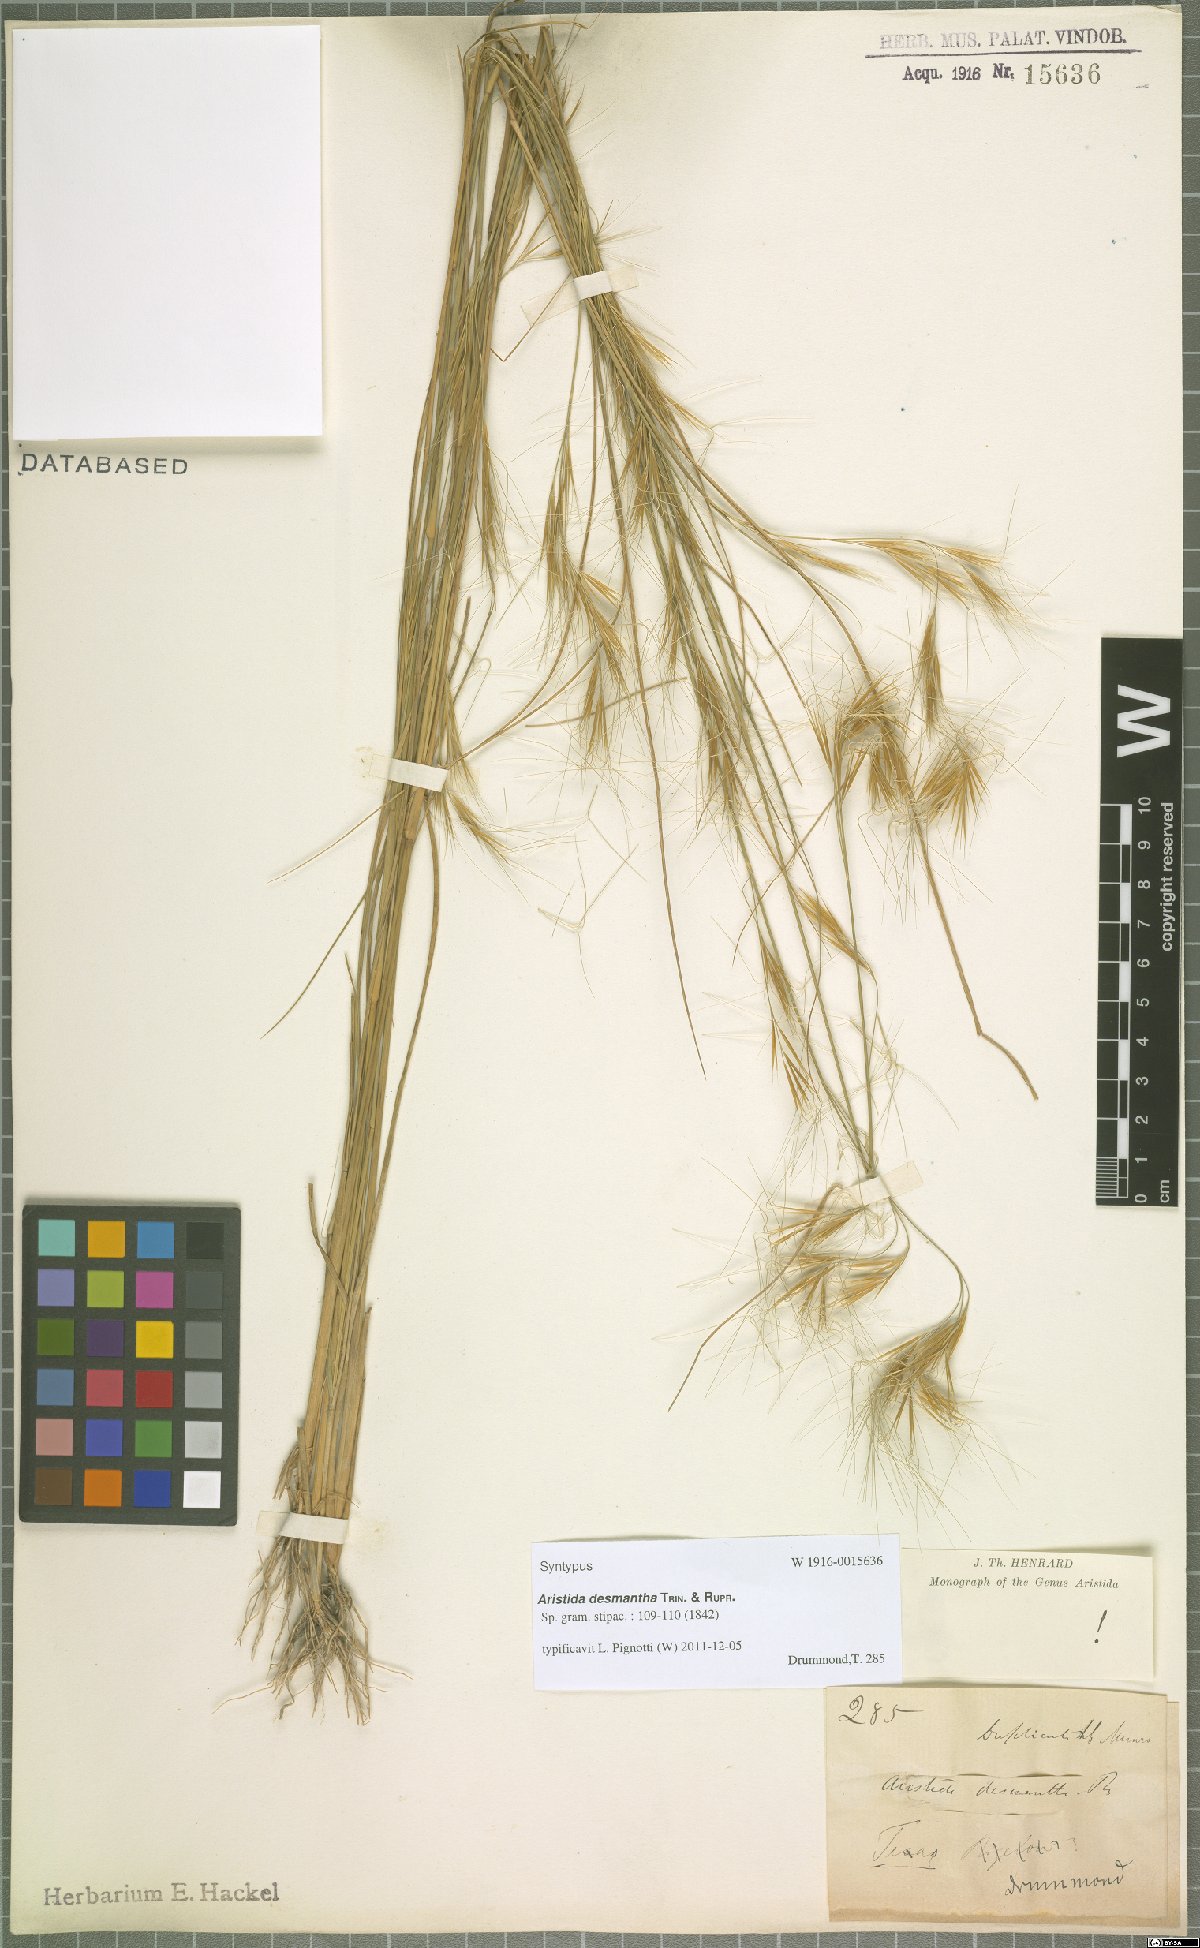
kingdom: Plantae
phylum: Tracheophyta
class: Liliopsida
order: Poales
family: Poaceae
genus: Aristida
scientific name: Aristida desmantha
